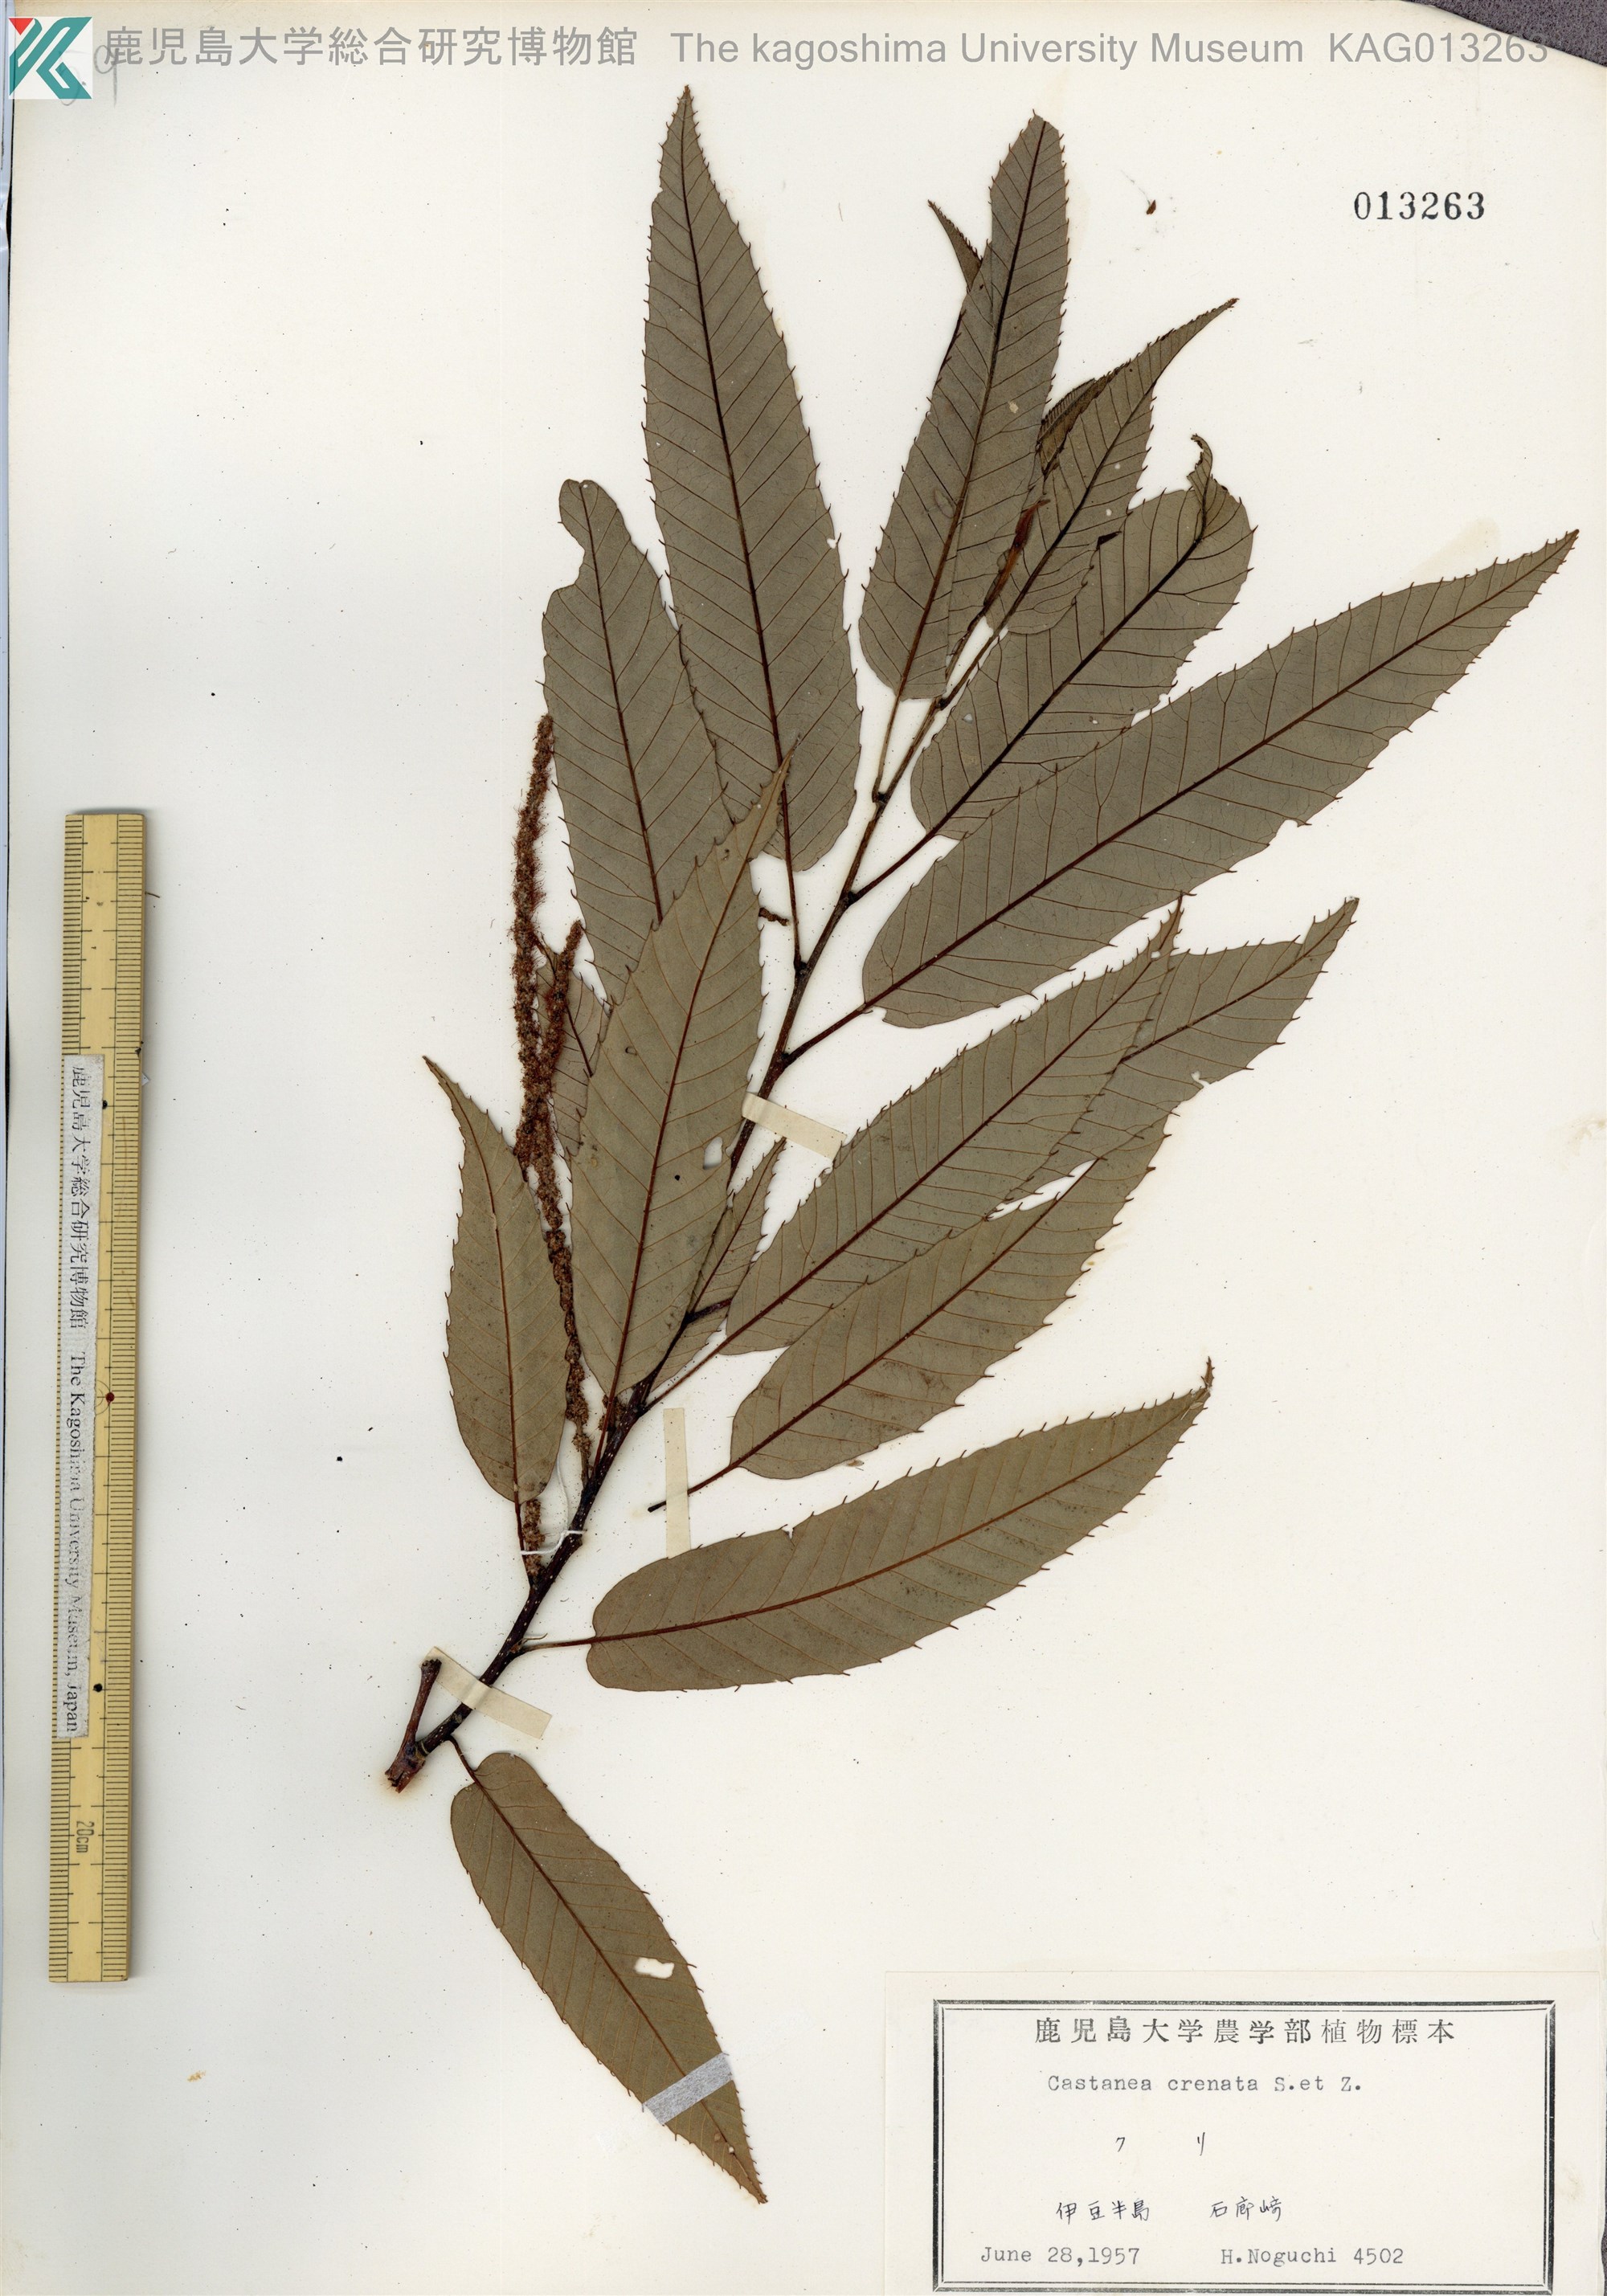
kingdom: Plantae
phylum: Tracheophyta
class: Magnoliopsida
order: Fagales
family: Fagaceae
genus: Castanea
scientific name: Castanea crenata
